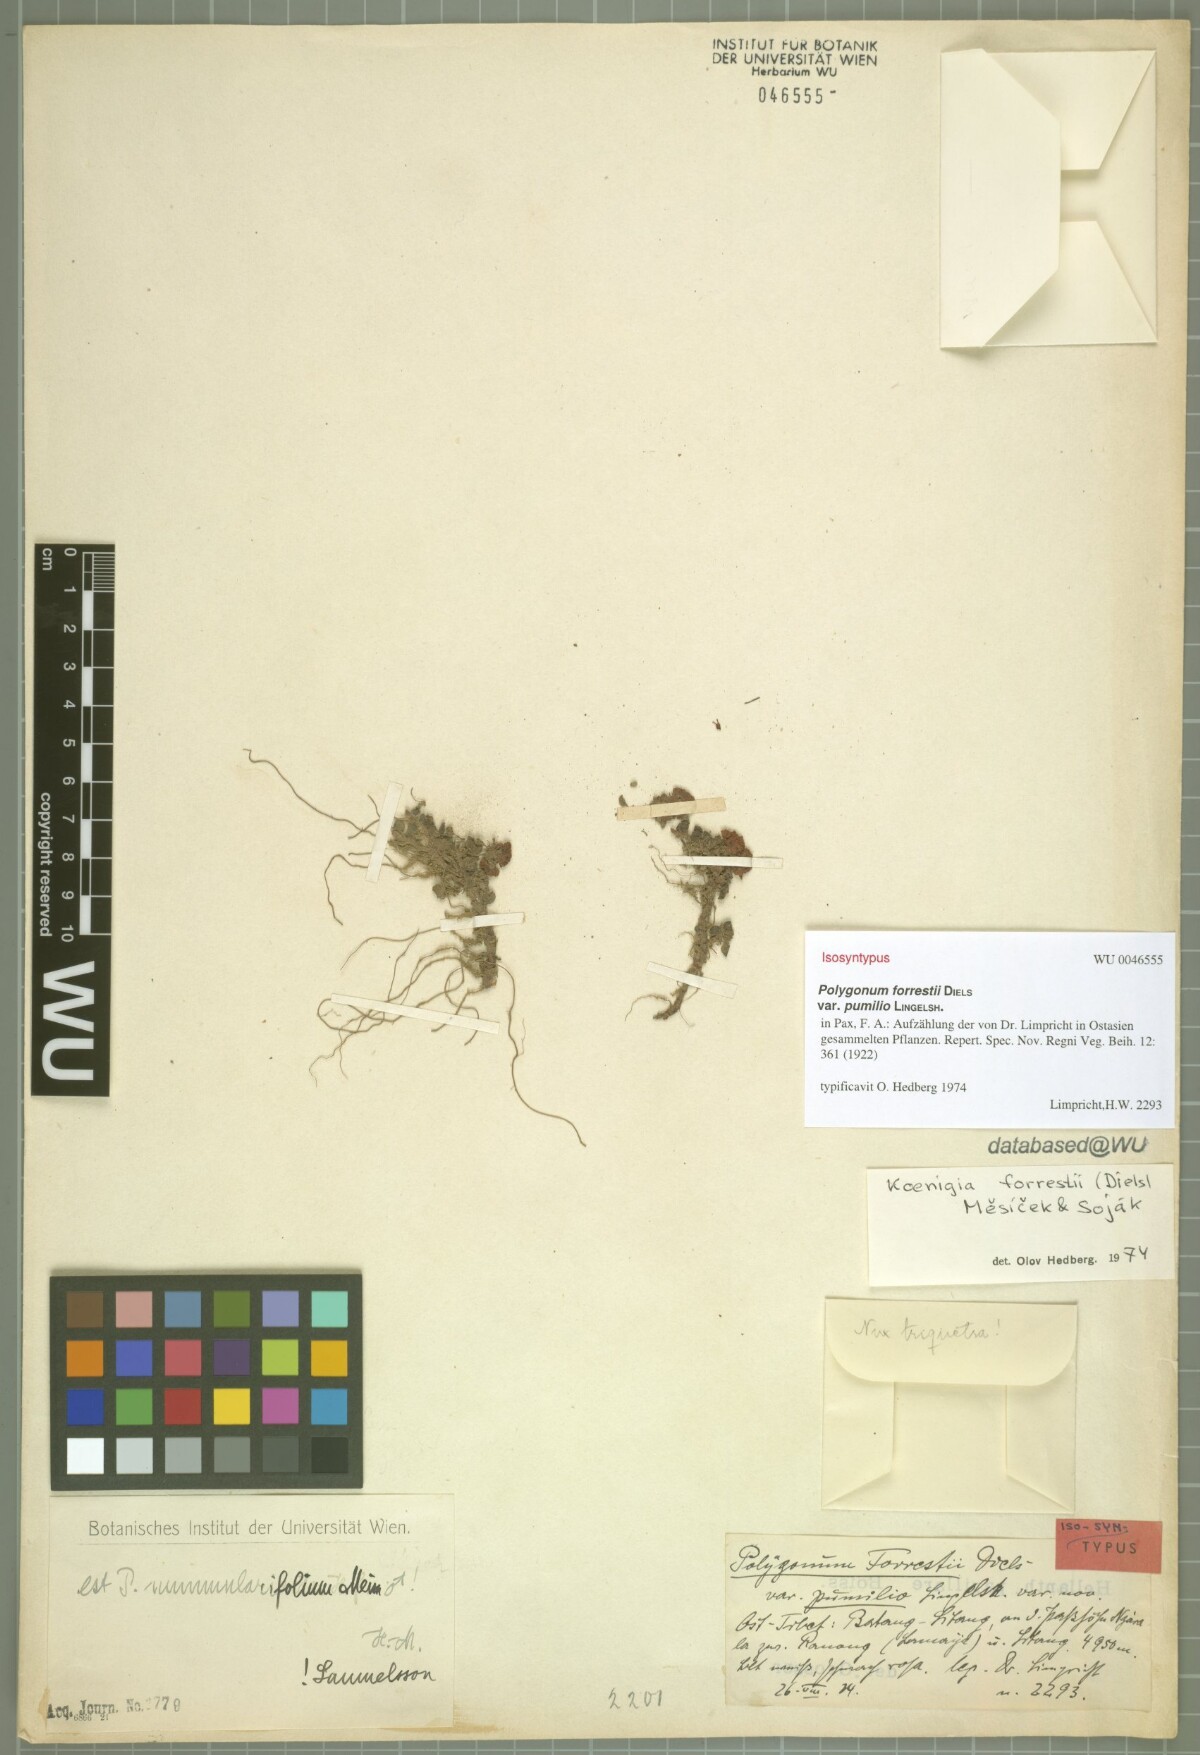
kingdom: Plantae
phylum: Tracheophyta
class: Magnoliopsida
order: Caryophyllales
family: Polygonaceae
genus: Koenigia
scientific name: Koenigia nummularifolia
